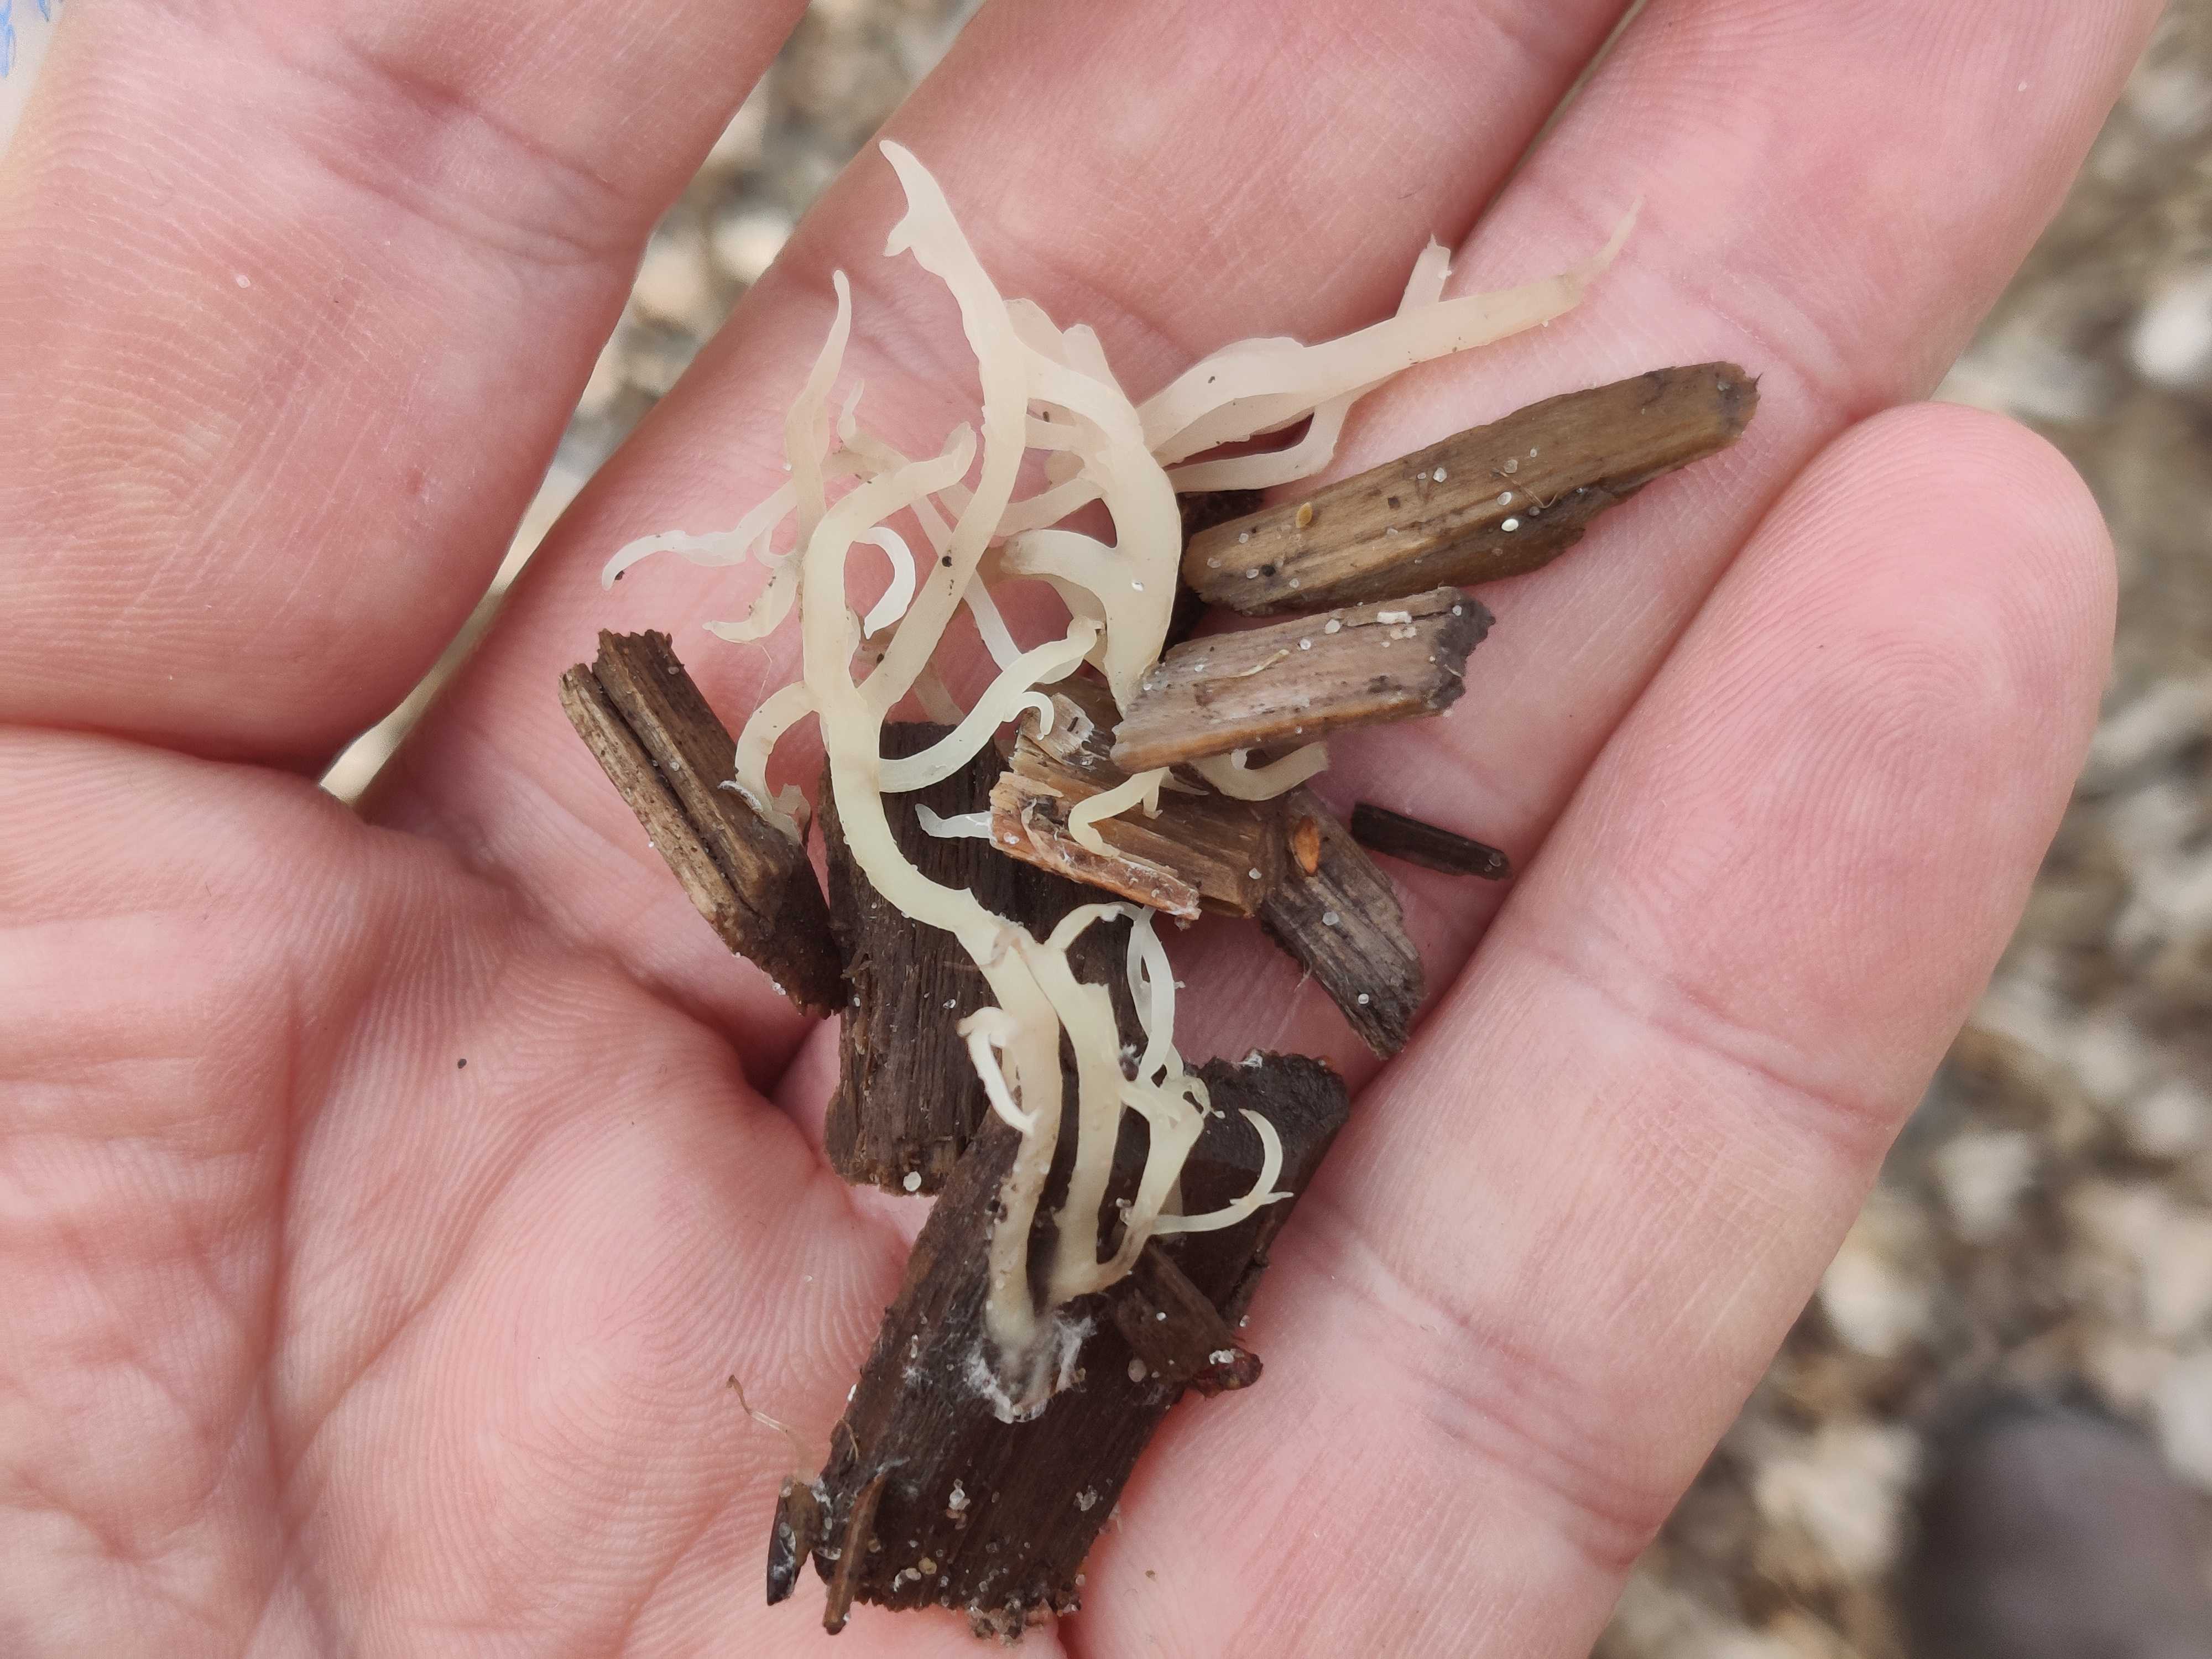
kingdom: Fungi
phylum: Basidiomycota
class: Agaricomycetes
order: Gomphales
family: Lentariaceae
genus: Lentaria
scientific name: Lentaria
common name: grenkølle
